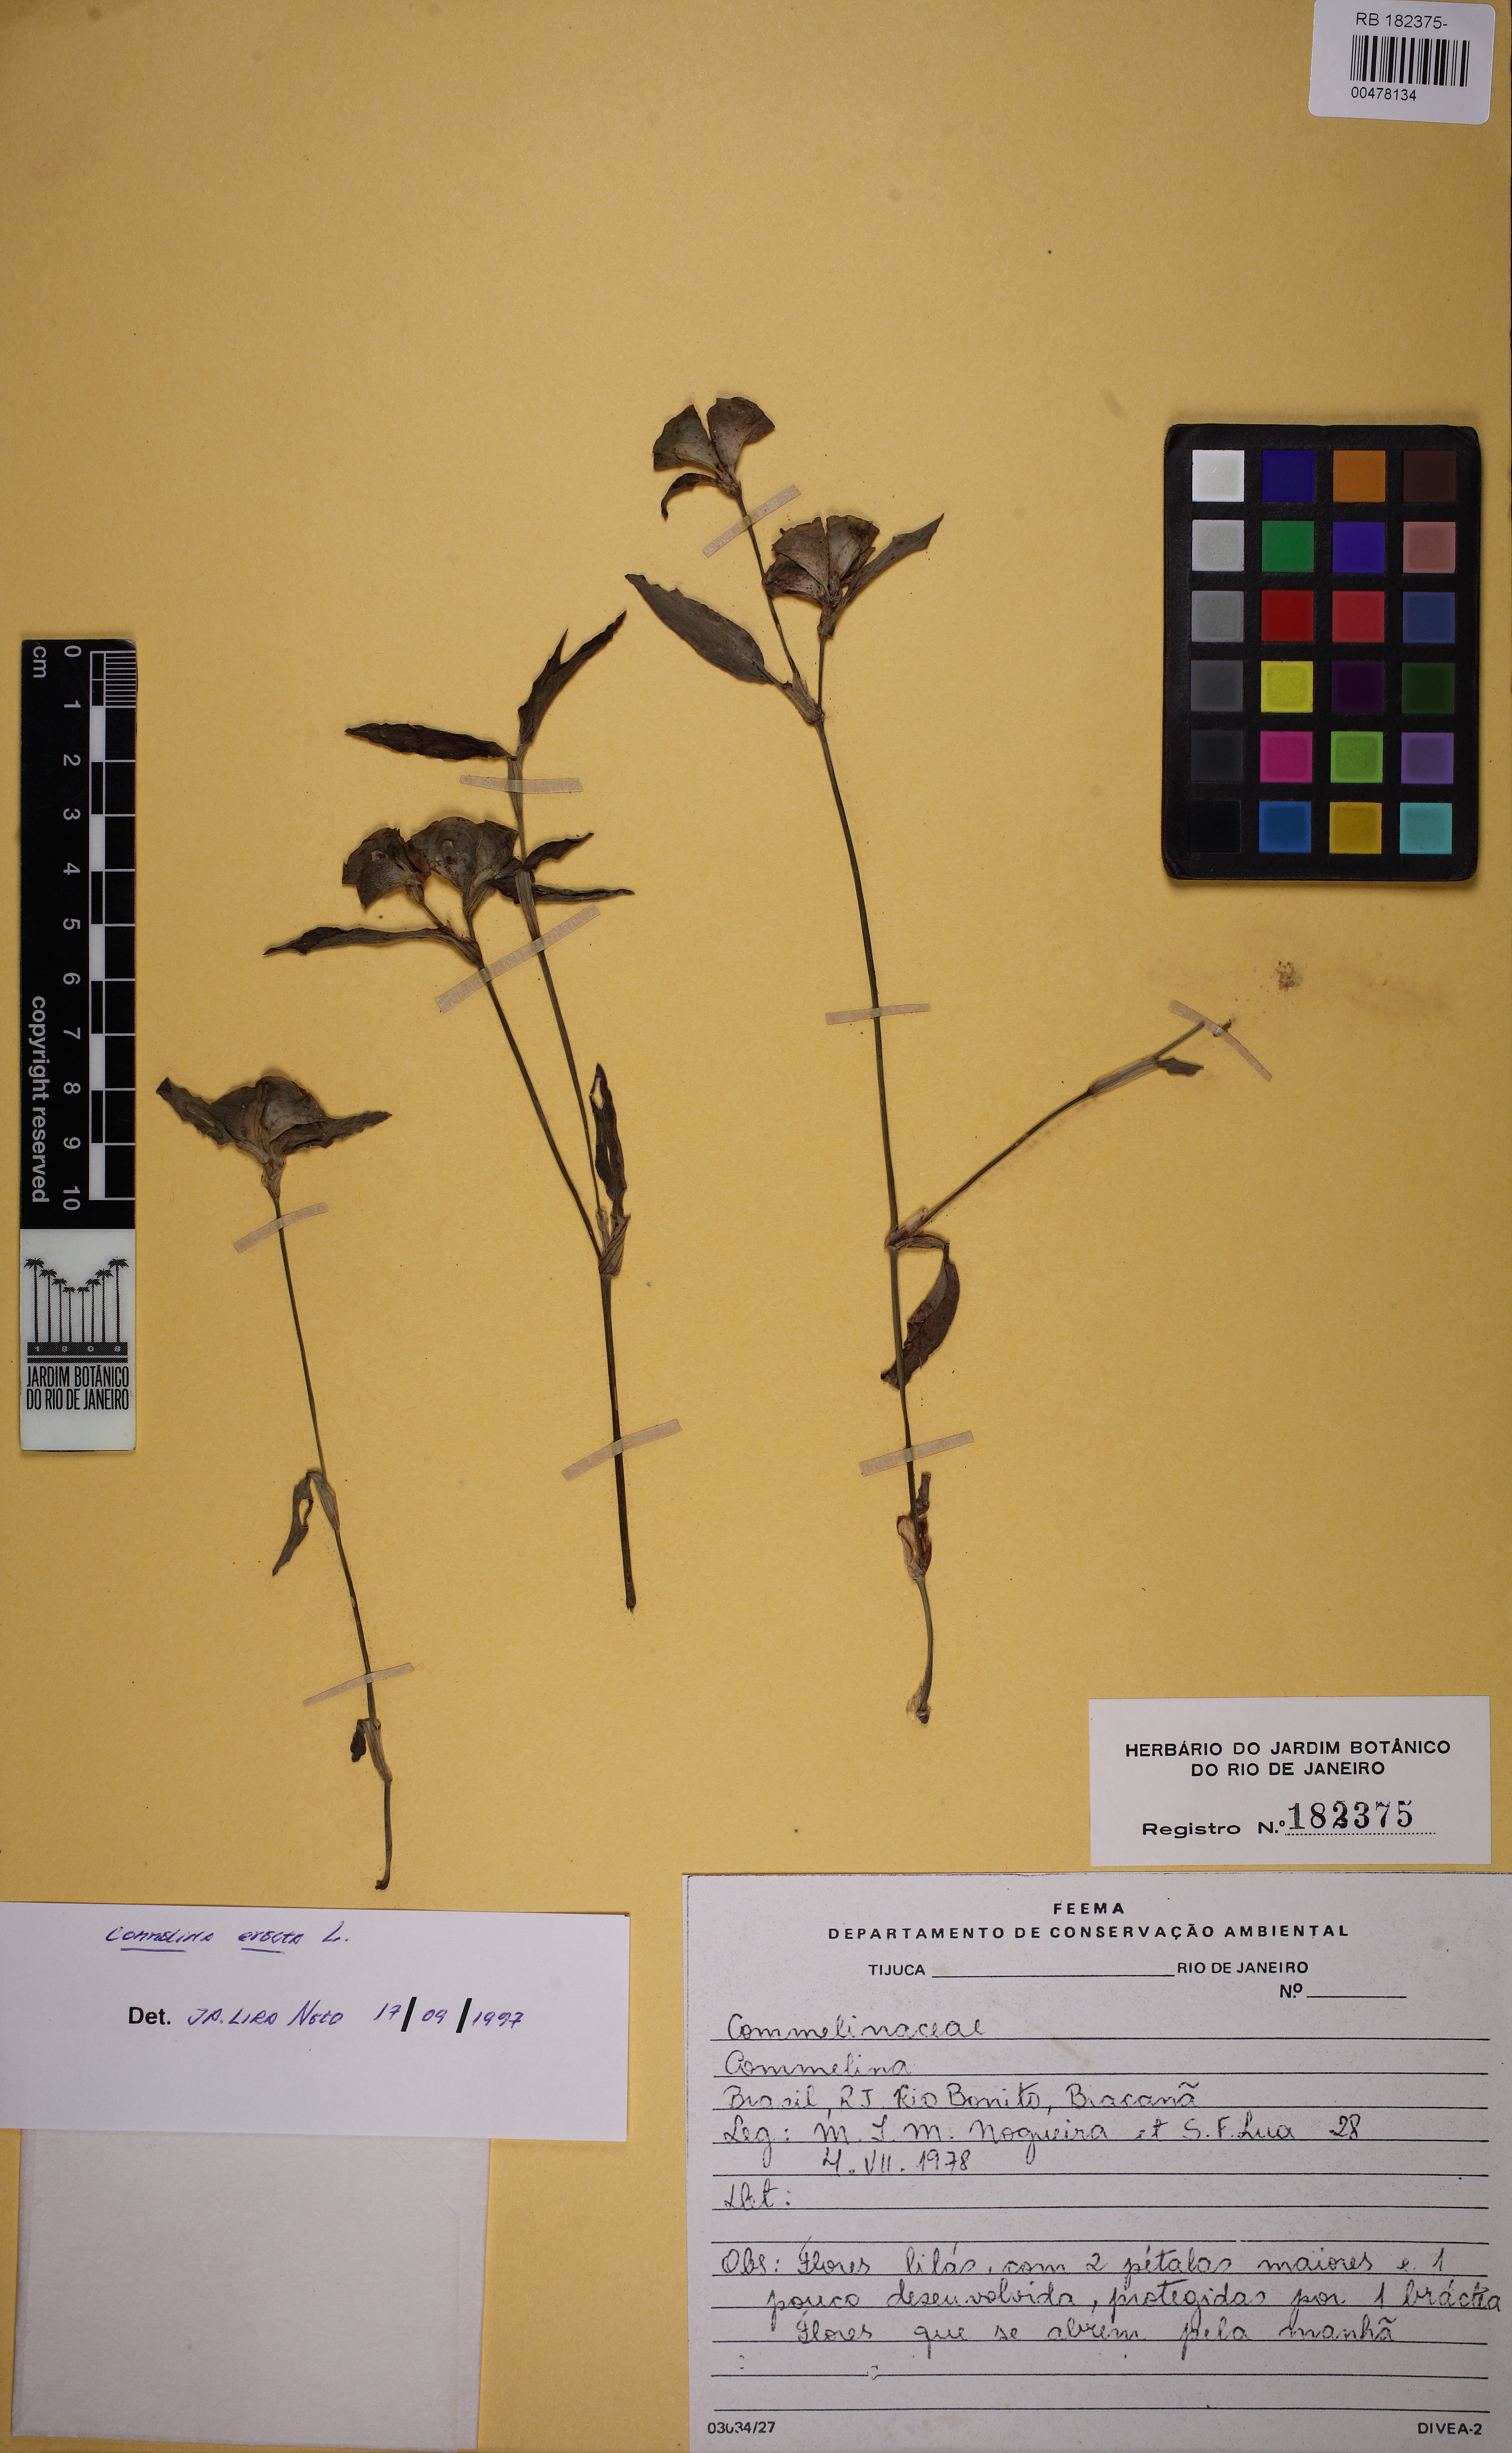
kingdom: Plantae
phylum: Tracheophyta
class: Liliopsida
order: Commelinales
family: Commelinaceae
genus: Commelina
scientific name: Commelina
